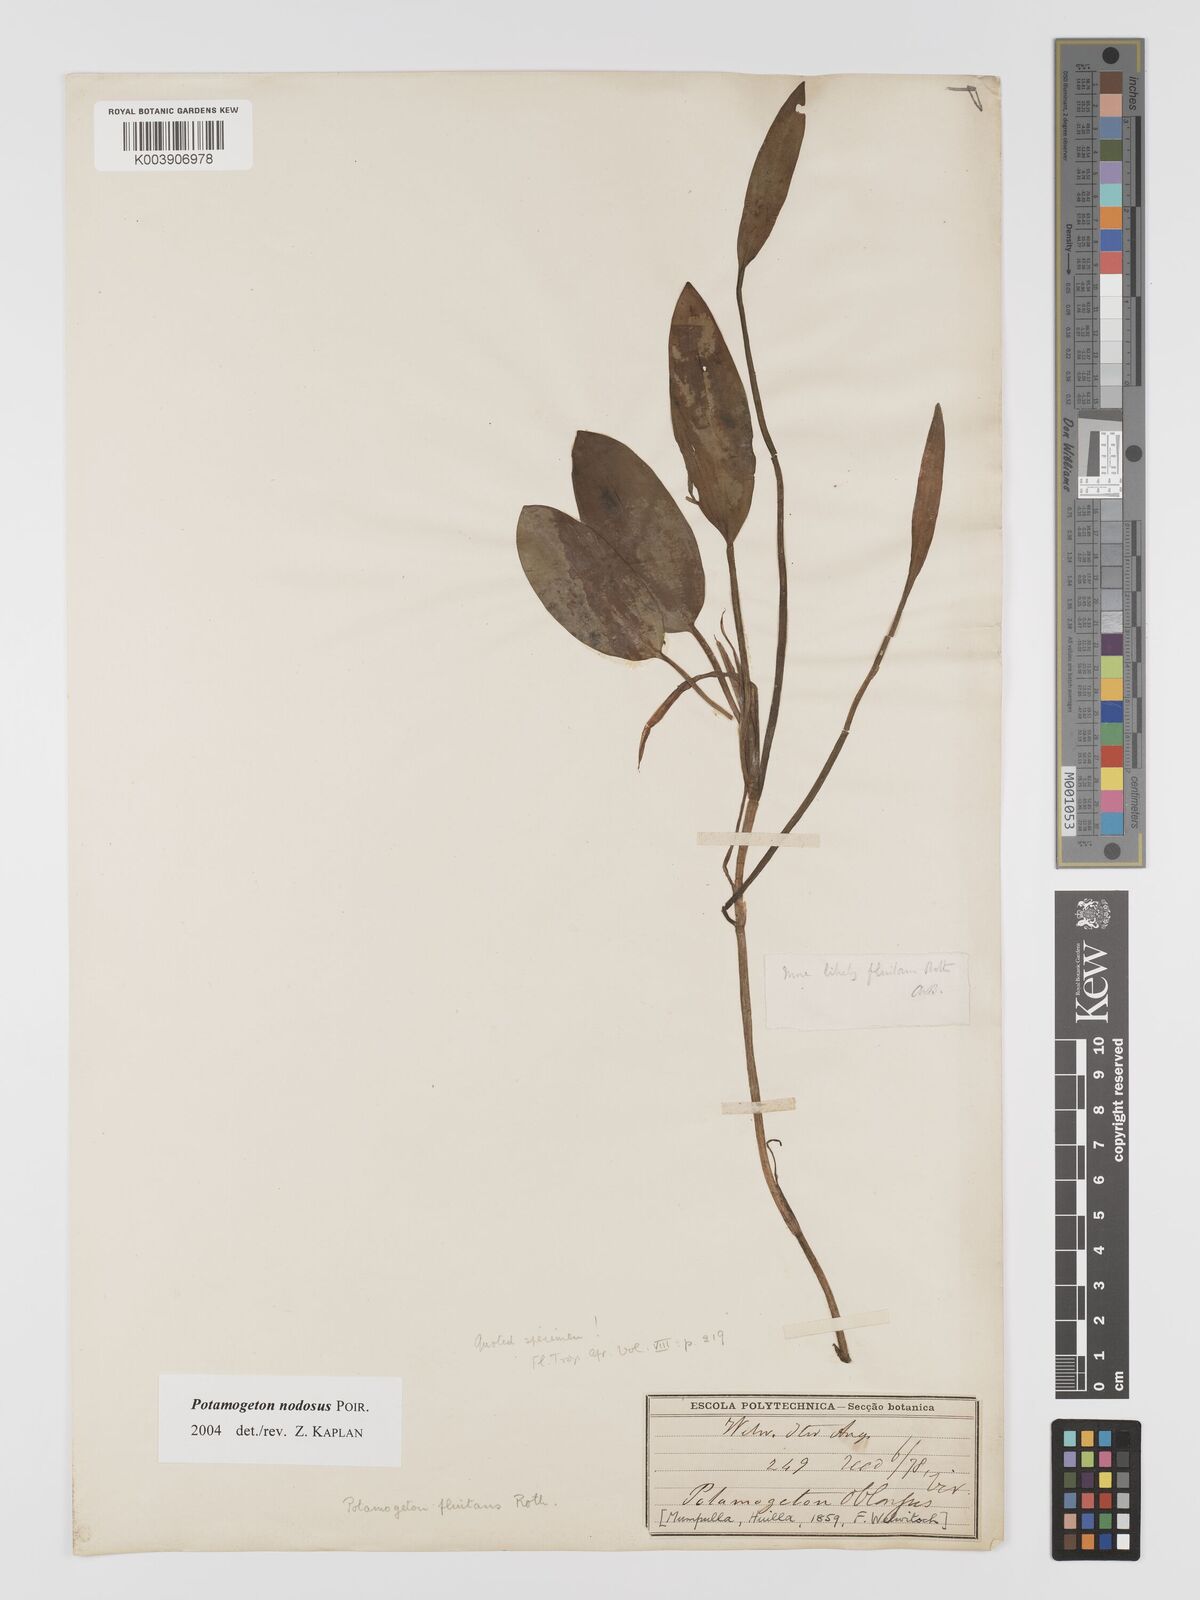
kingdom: Plantae
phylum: Tracheophyta
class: Liliopsida
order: Alismatales
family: Potamogetonaceae
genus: Potamogeton
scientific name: Potamogeton nodosus
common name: Loddon pondweed
